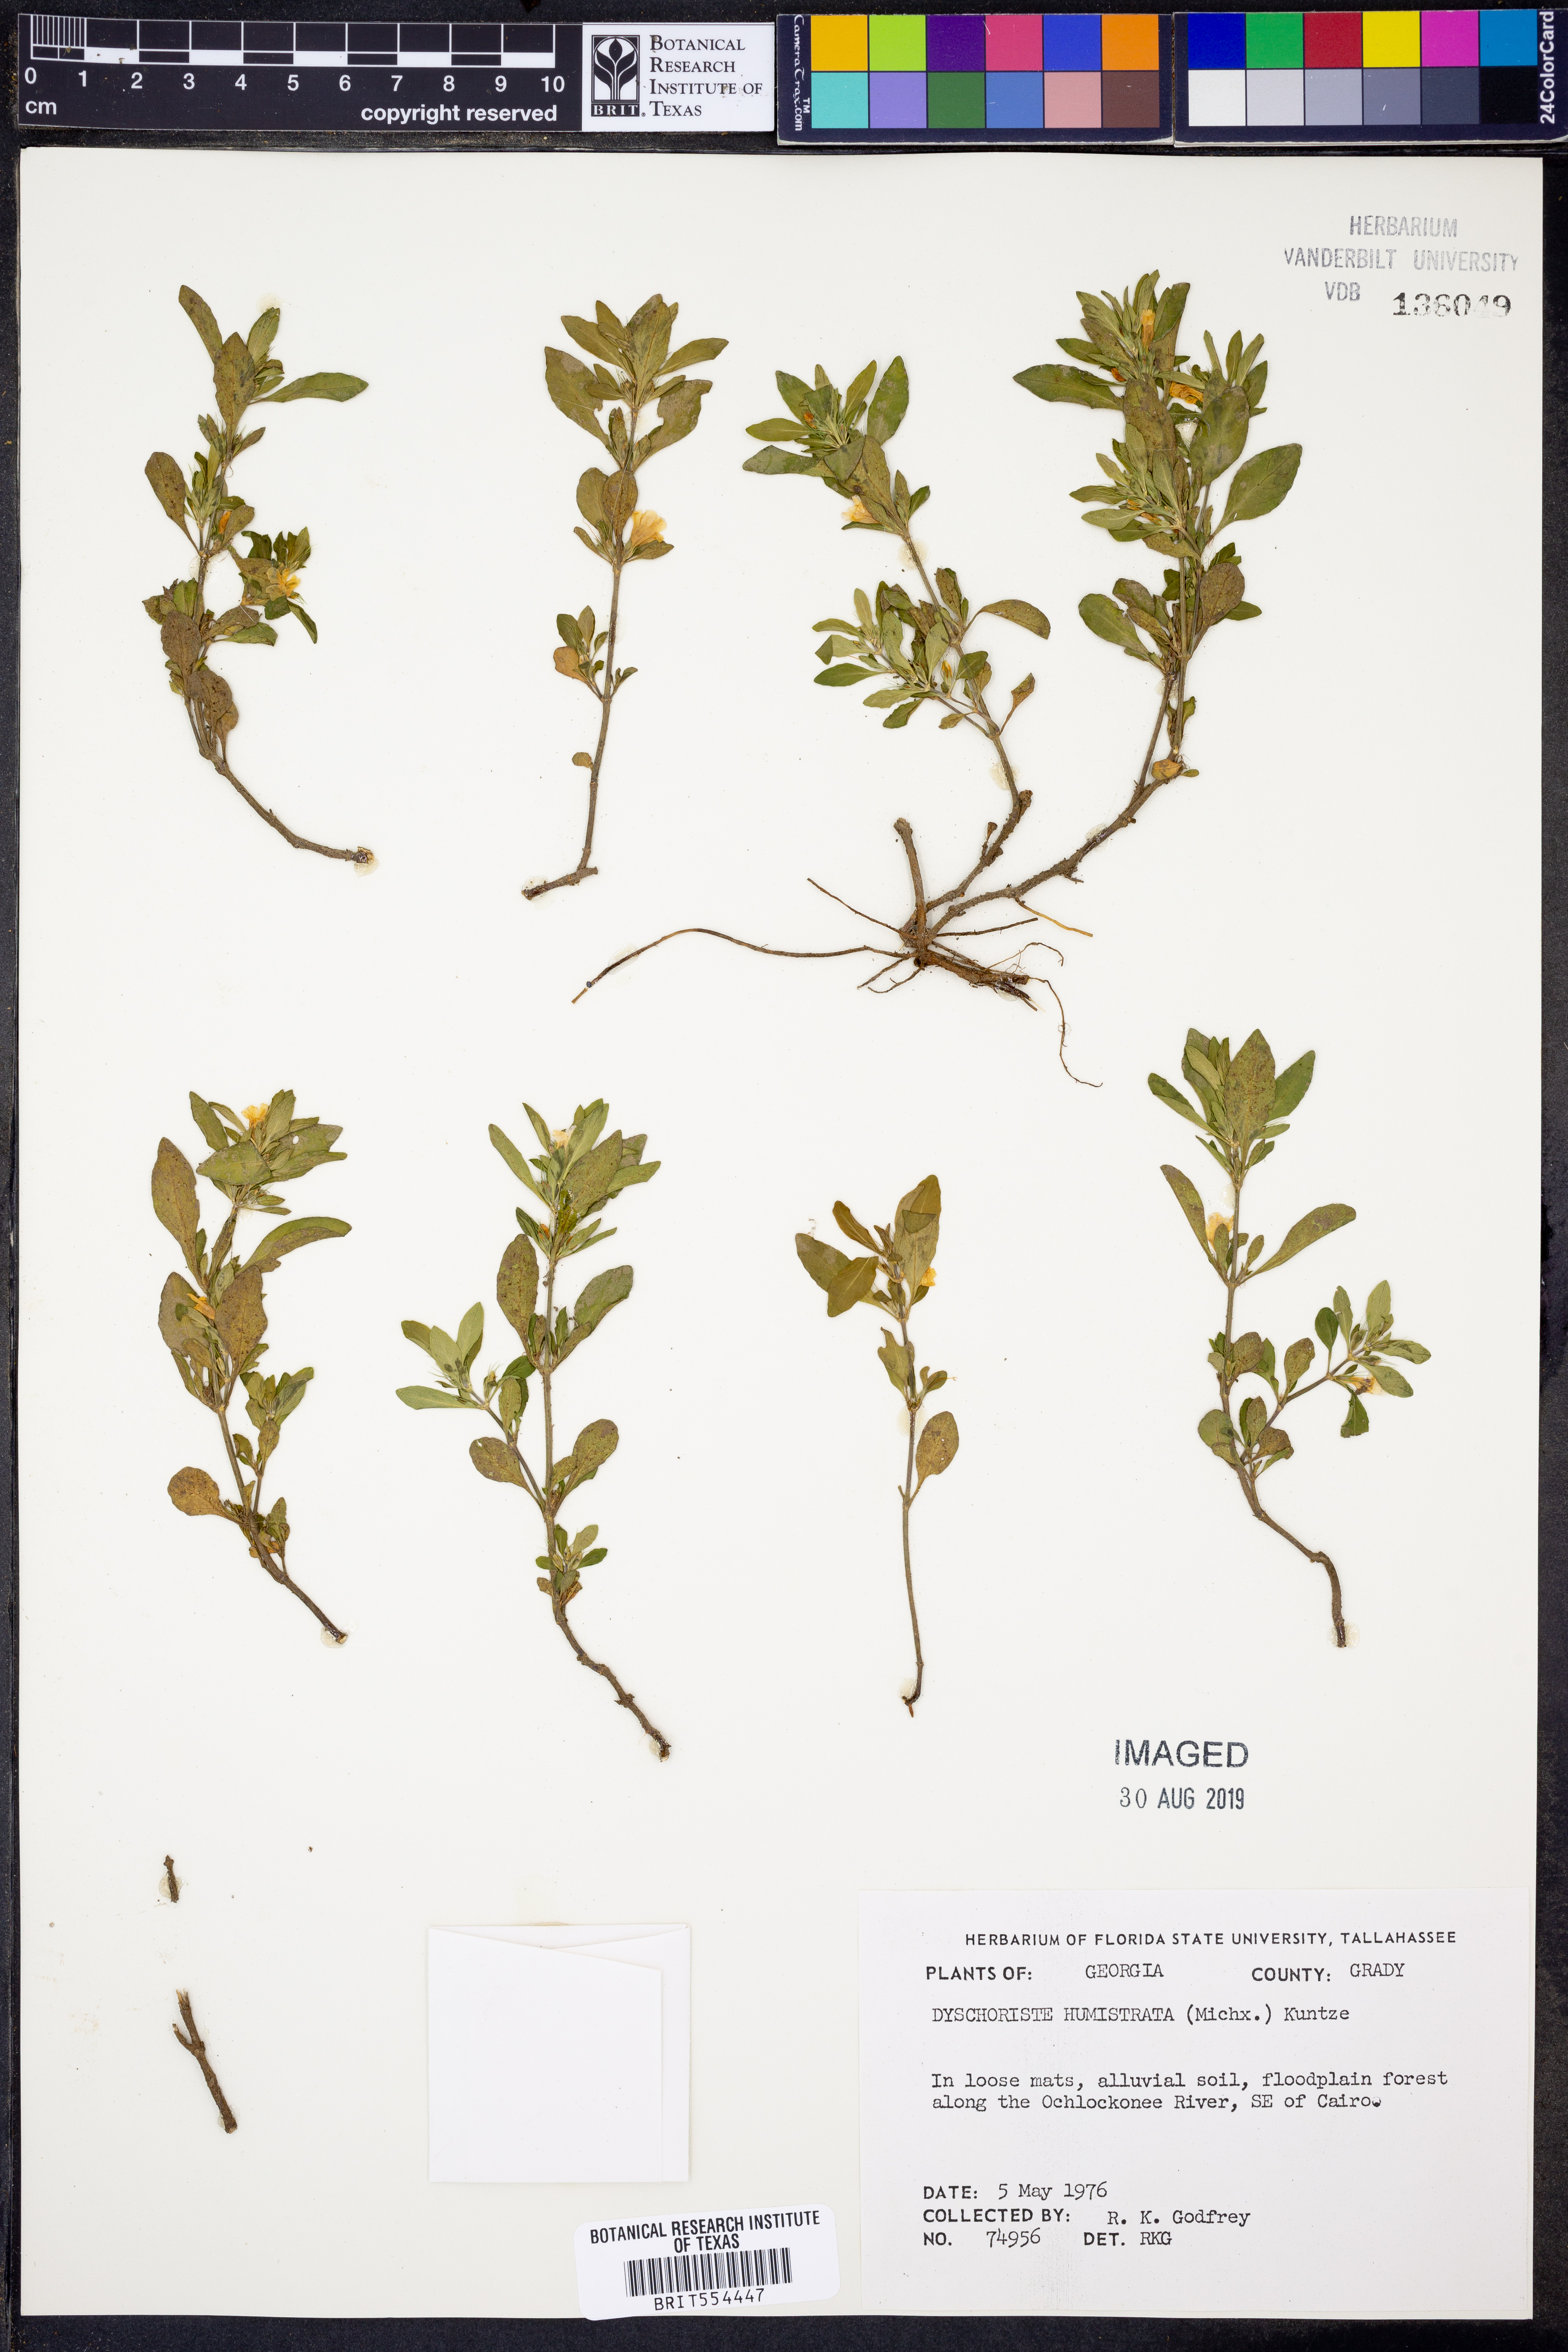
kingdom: Plantae
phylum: Tracheophyta
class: Magnoliopsida
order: Lamiales
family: Acanthaceae
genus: Dyschoriste
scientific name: Dyschoriste humistrata
